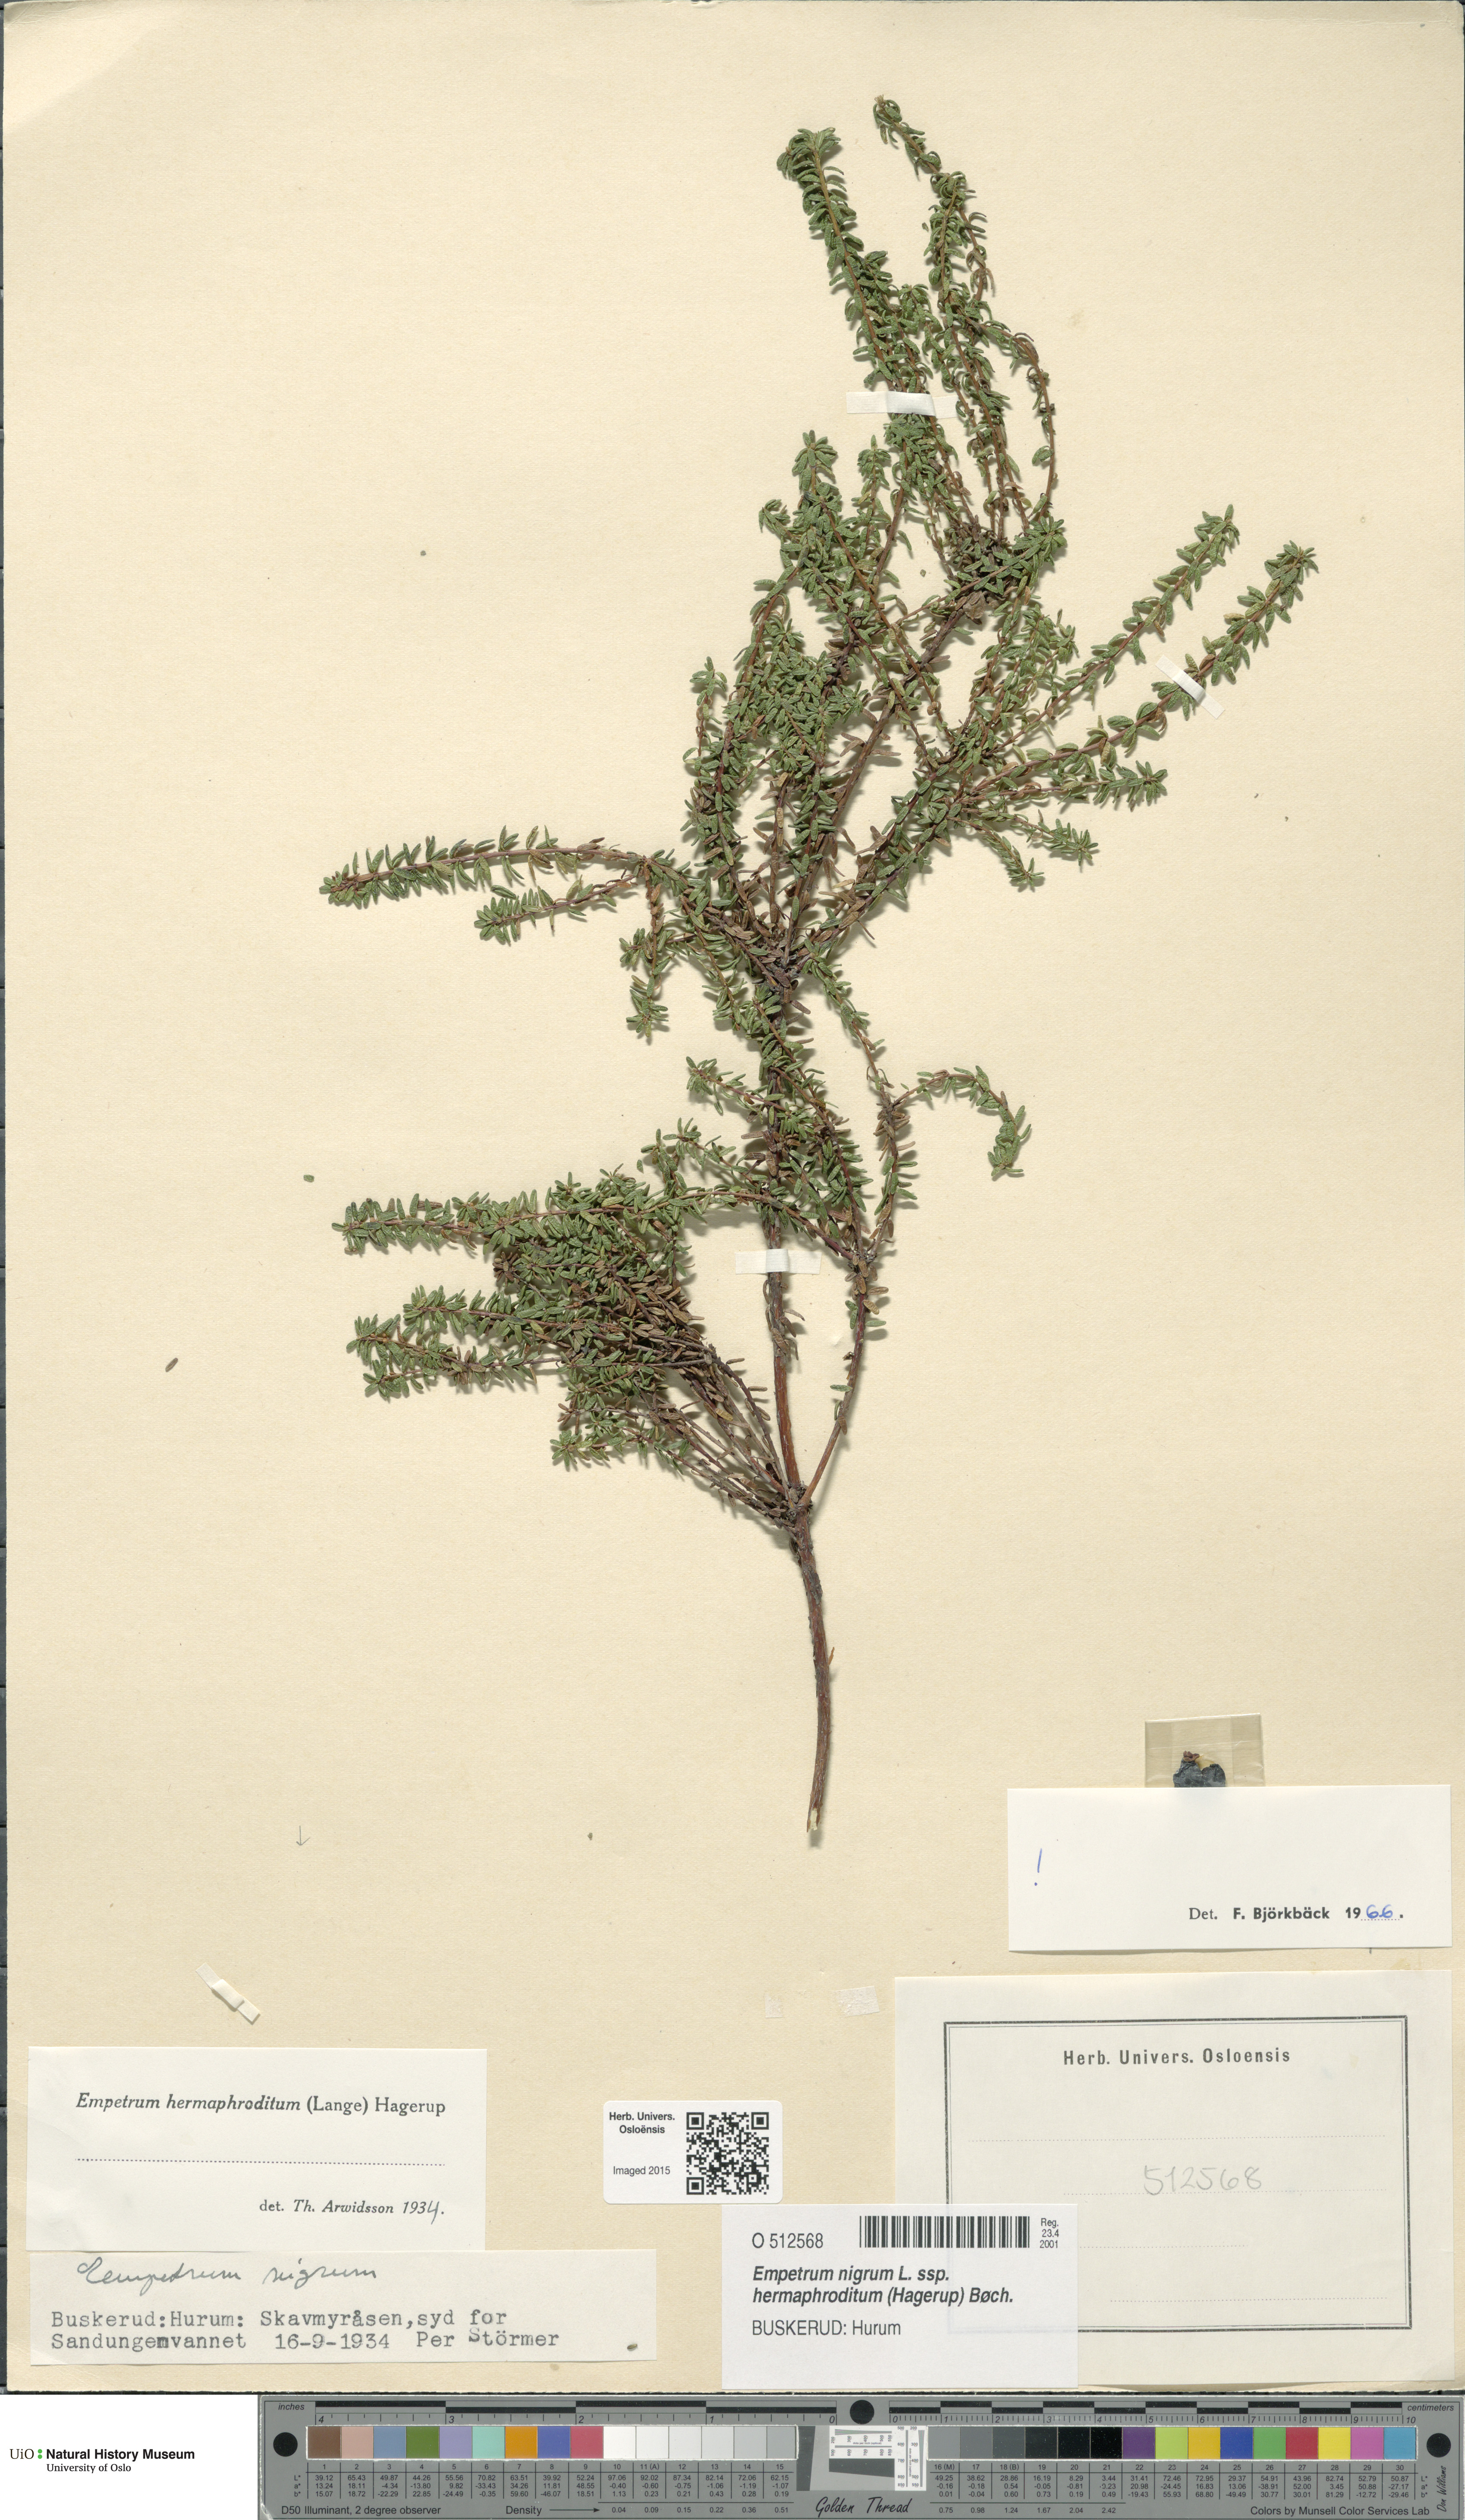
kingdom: Plantae
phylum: Tracheophyta
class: Magnoliopsida
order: Ericales
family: Ericaceae
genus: Empetrum
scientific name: Empetrum hermaphroditum
